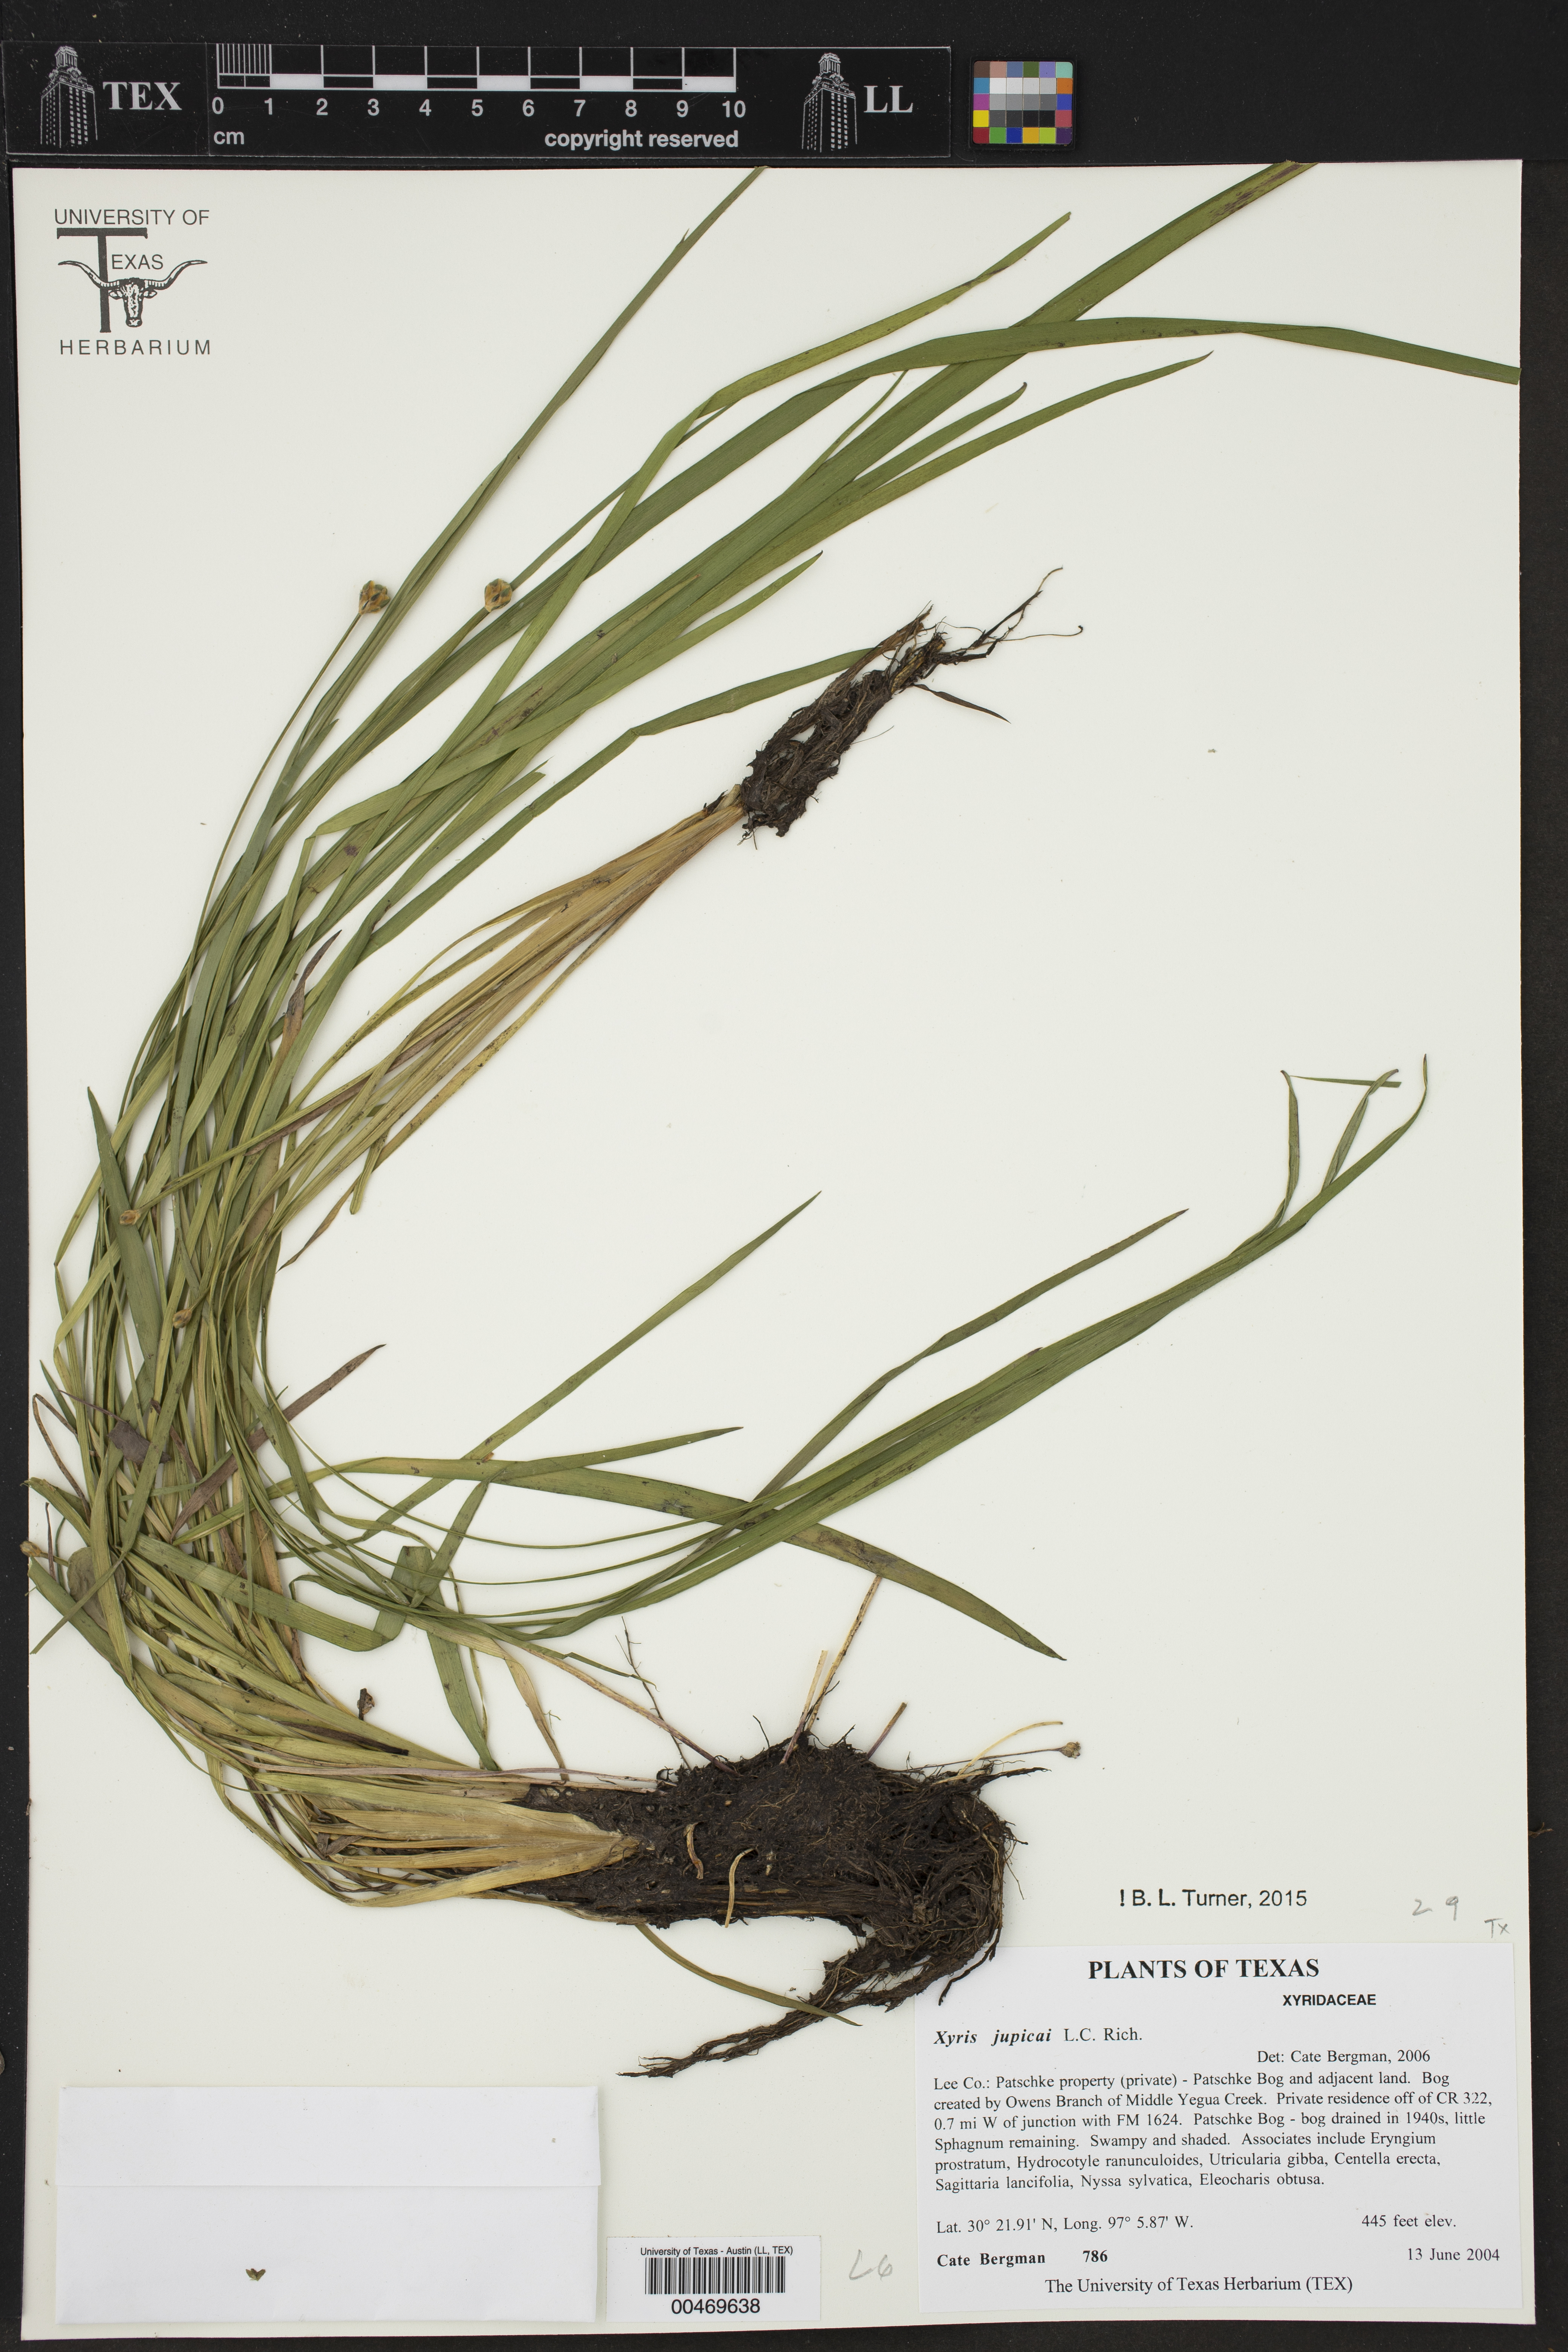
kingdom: Plantae
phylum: Tracheophyta
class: Liliopsida
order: Poales
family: Xyridaceae
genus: Xyris
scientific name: Xyris jupicai
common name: Richard's yelloweyed grass
